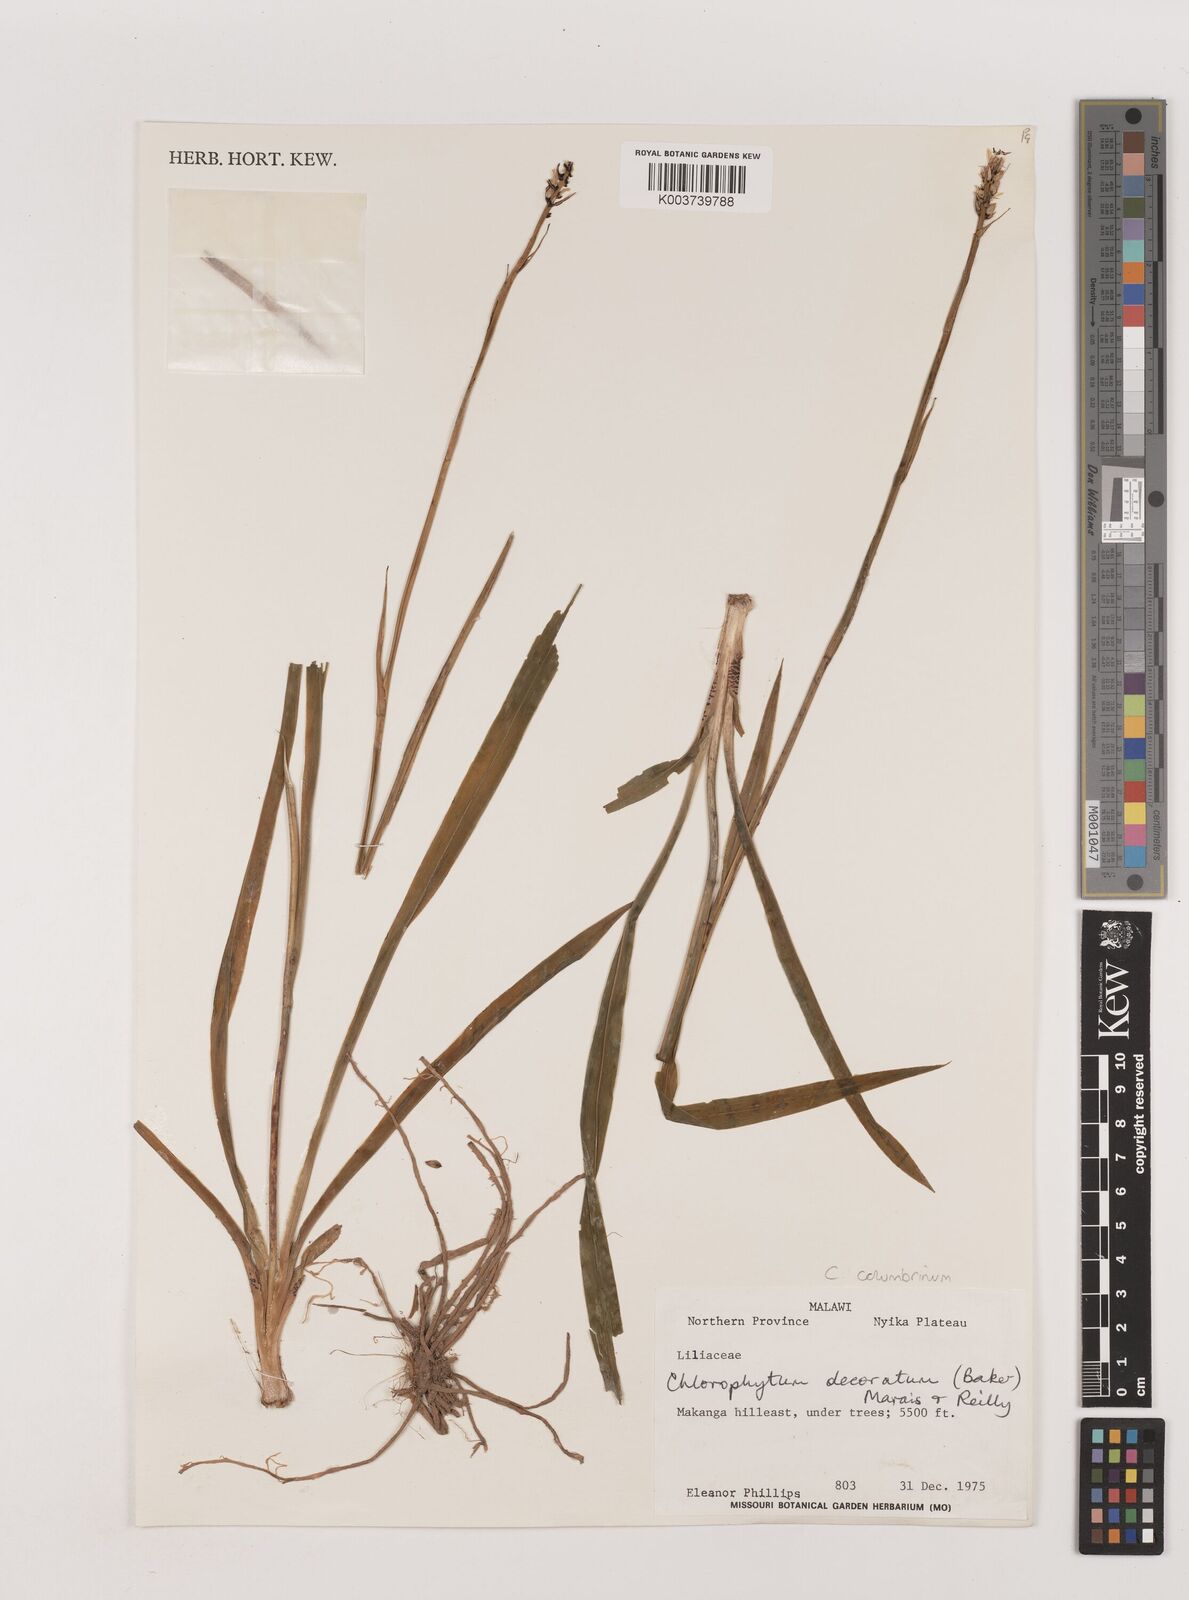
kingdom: Plantae
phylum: Tracheophyta
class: Liliopsida
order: Asparagales
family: Asparagaceae
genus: Chlorophytum
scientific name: Chlorophytum colubrinum
